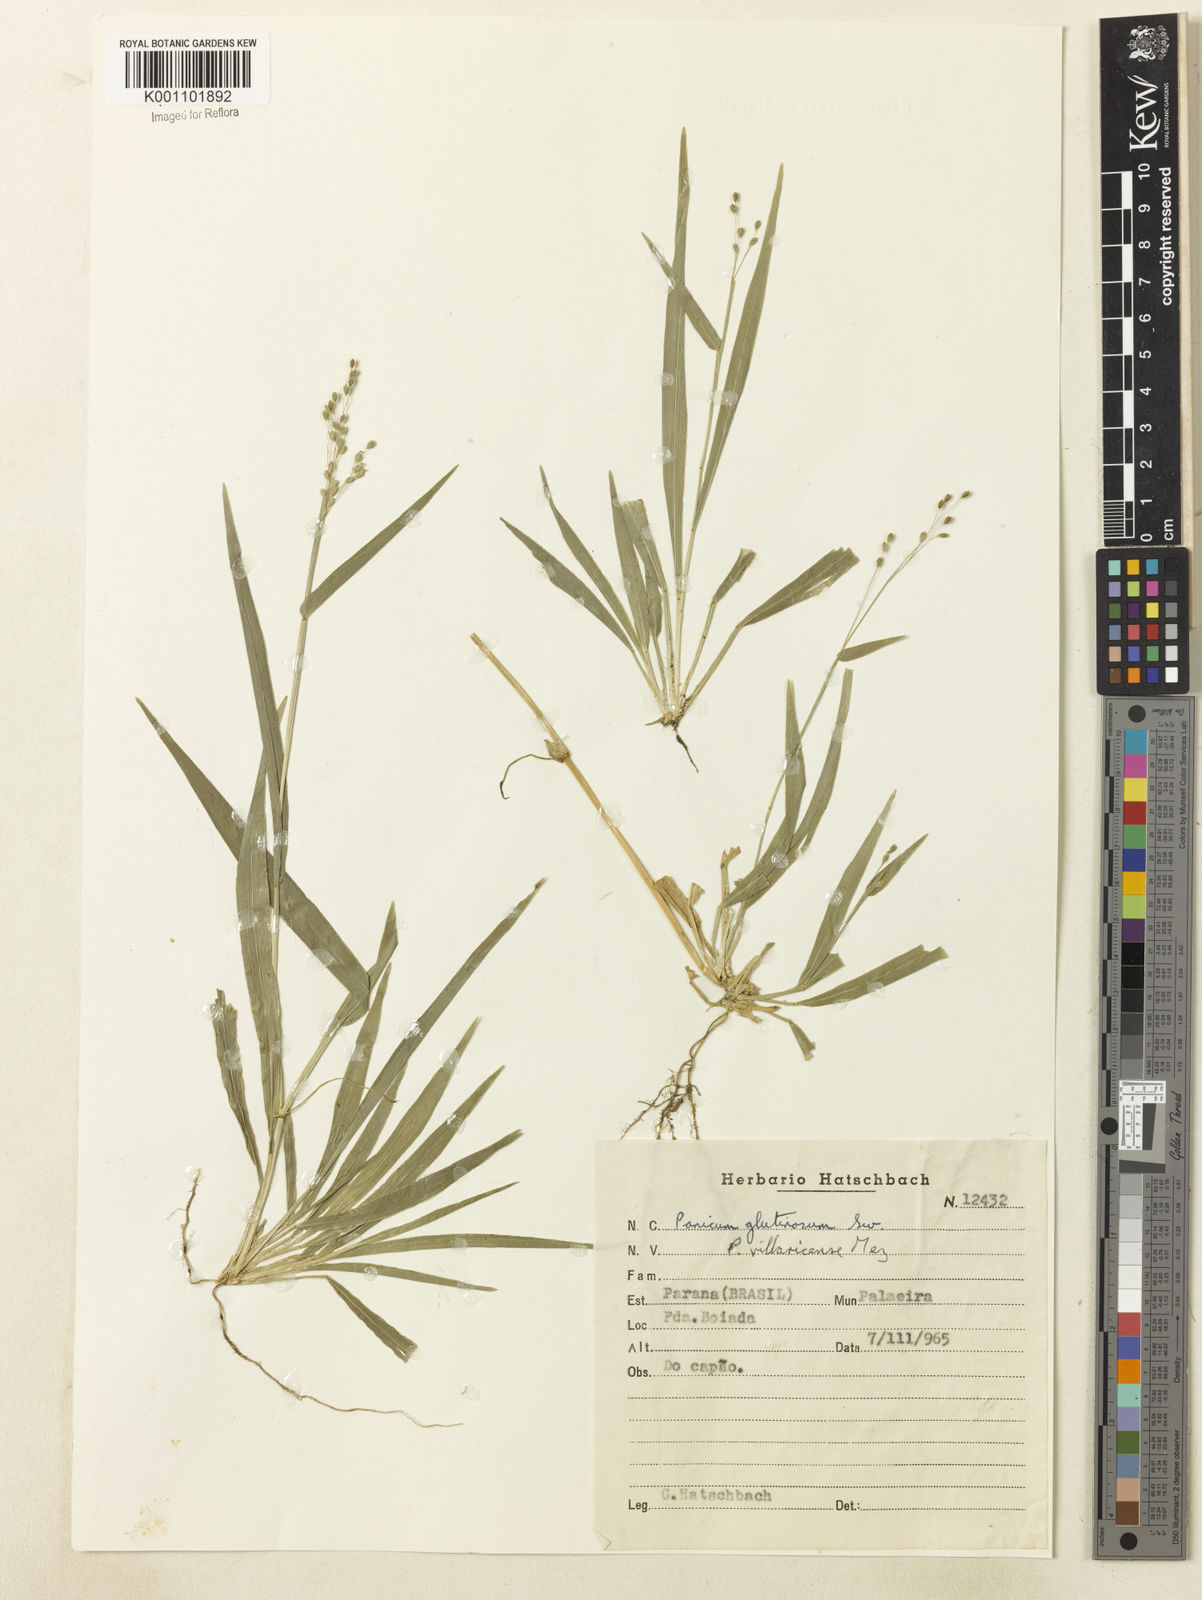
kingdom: Plantae
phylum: Tracheophyta
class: Liliopsida
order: Poales
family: Poaceae
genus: Homolepis
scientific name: Homolepis villaricensis
